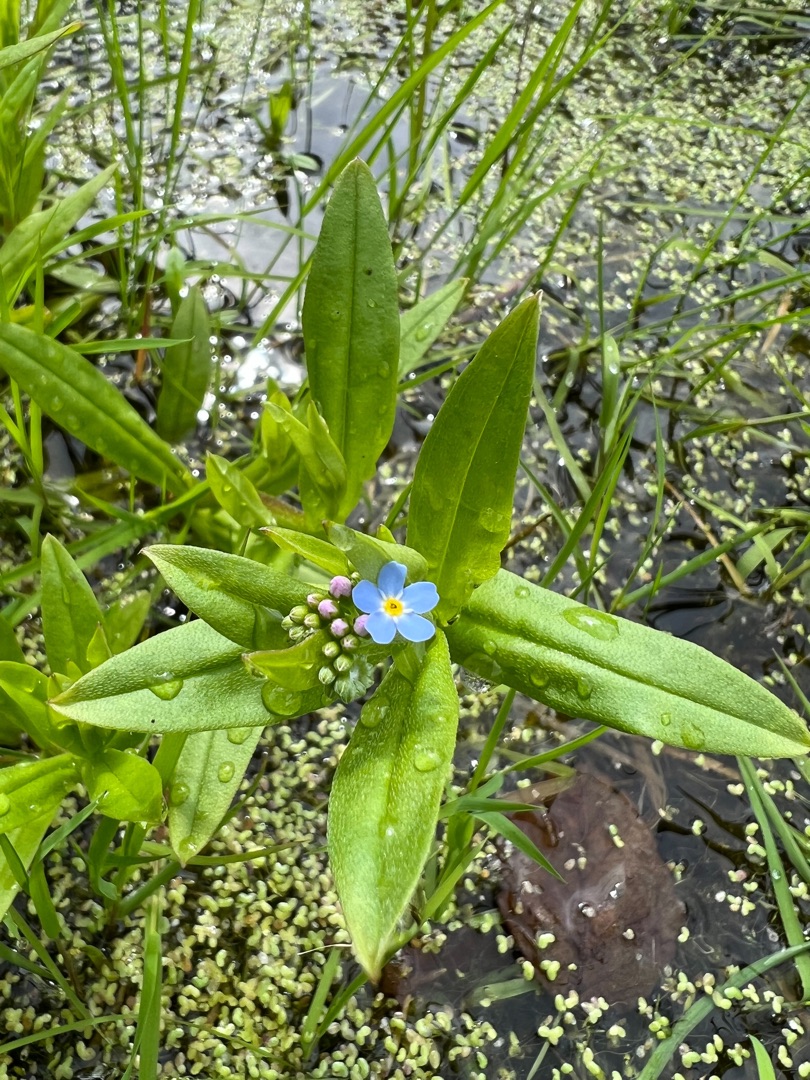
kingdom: Plantae
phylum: Tracheophyta
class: Magnoliopsida
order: Boraginales
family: Boraginaceae
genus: Myosotis
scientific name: Myosotis scorpioides
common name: Eng-forglemmigej
